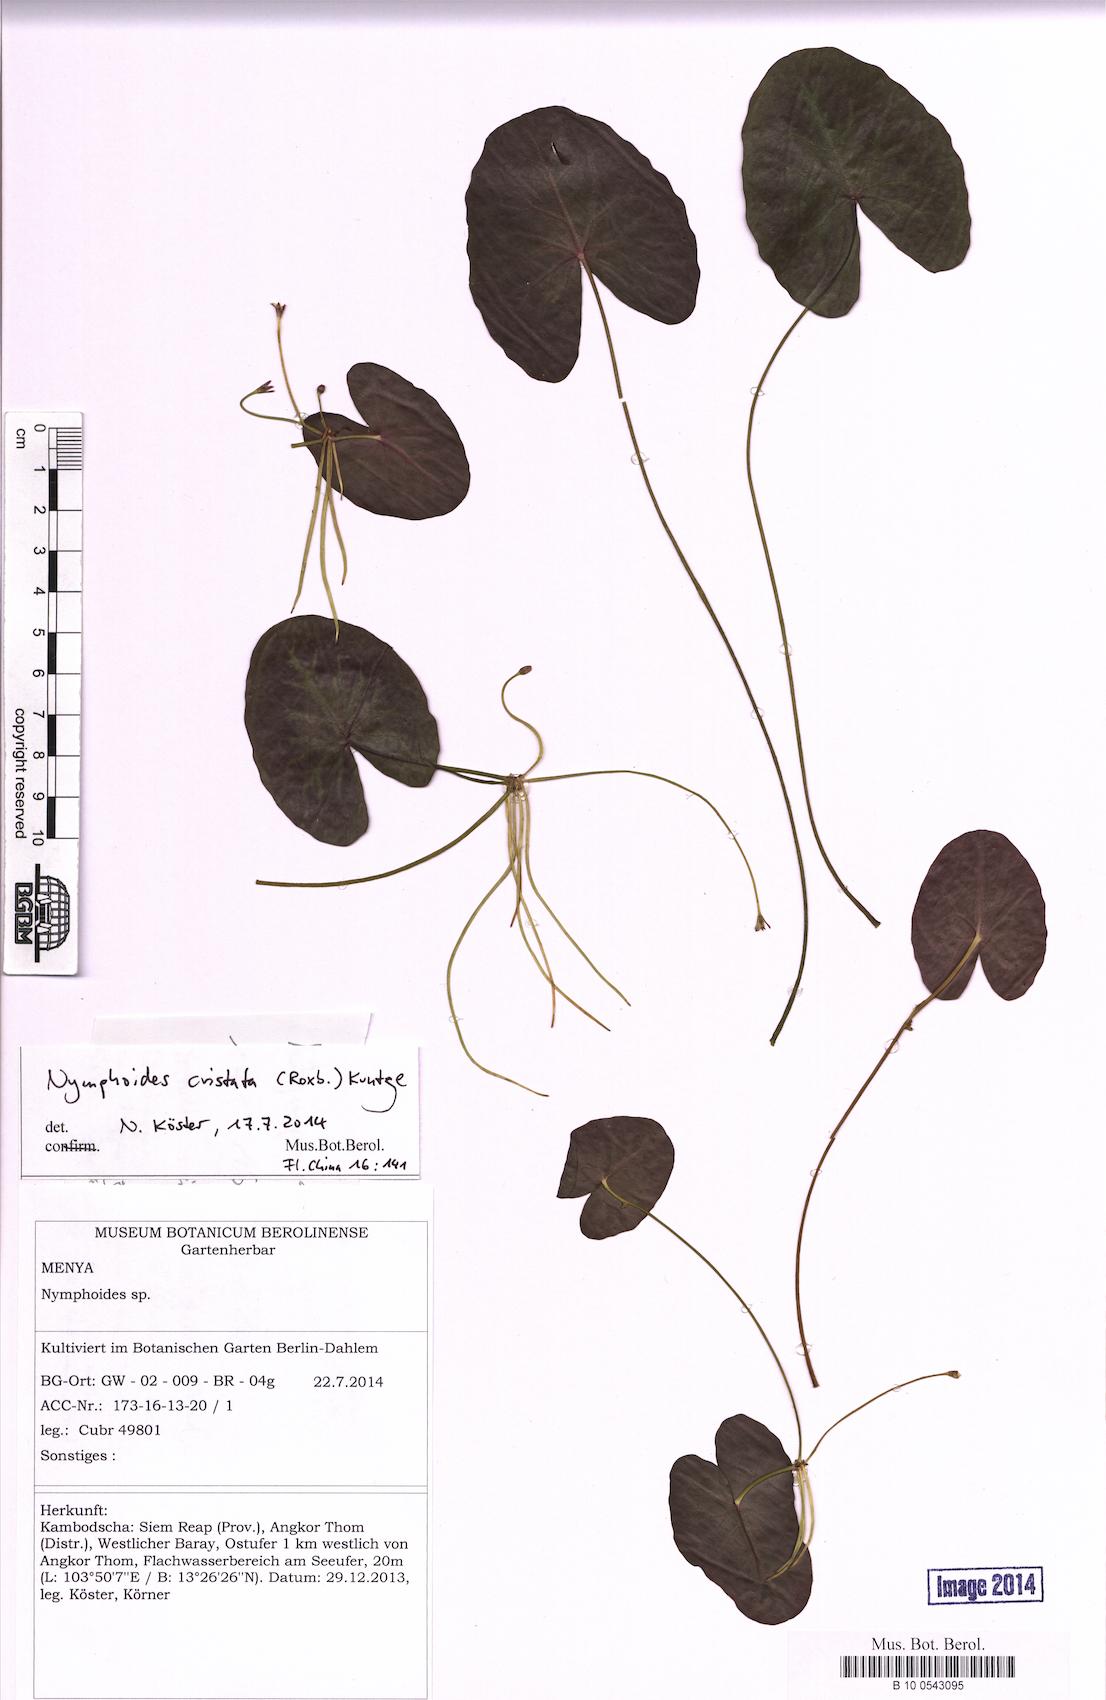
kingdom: Plantae
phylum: Tracheophyta
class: Magnoliopsida
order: Asterales
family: Menyanthaceae
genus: Nymphoides
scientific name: Nymphoides hydrophylla
